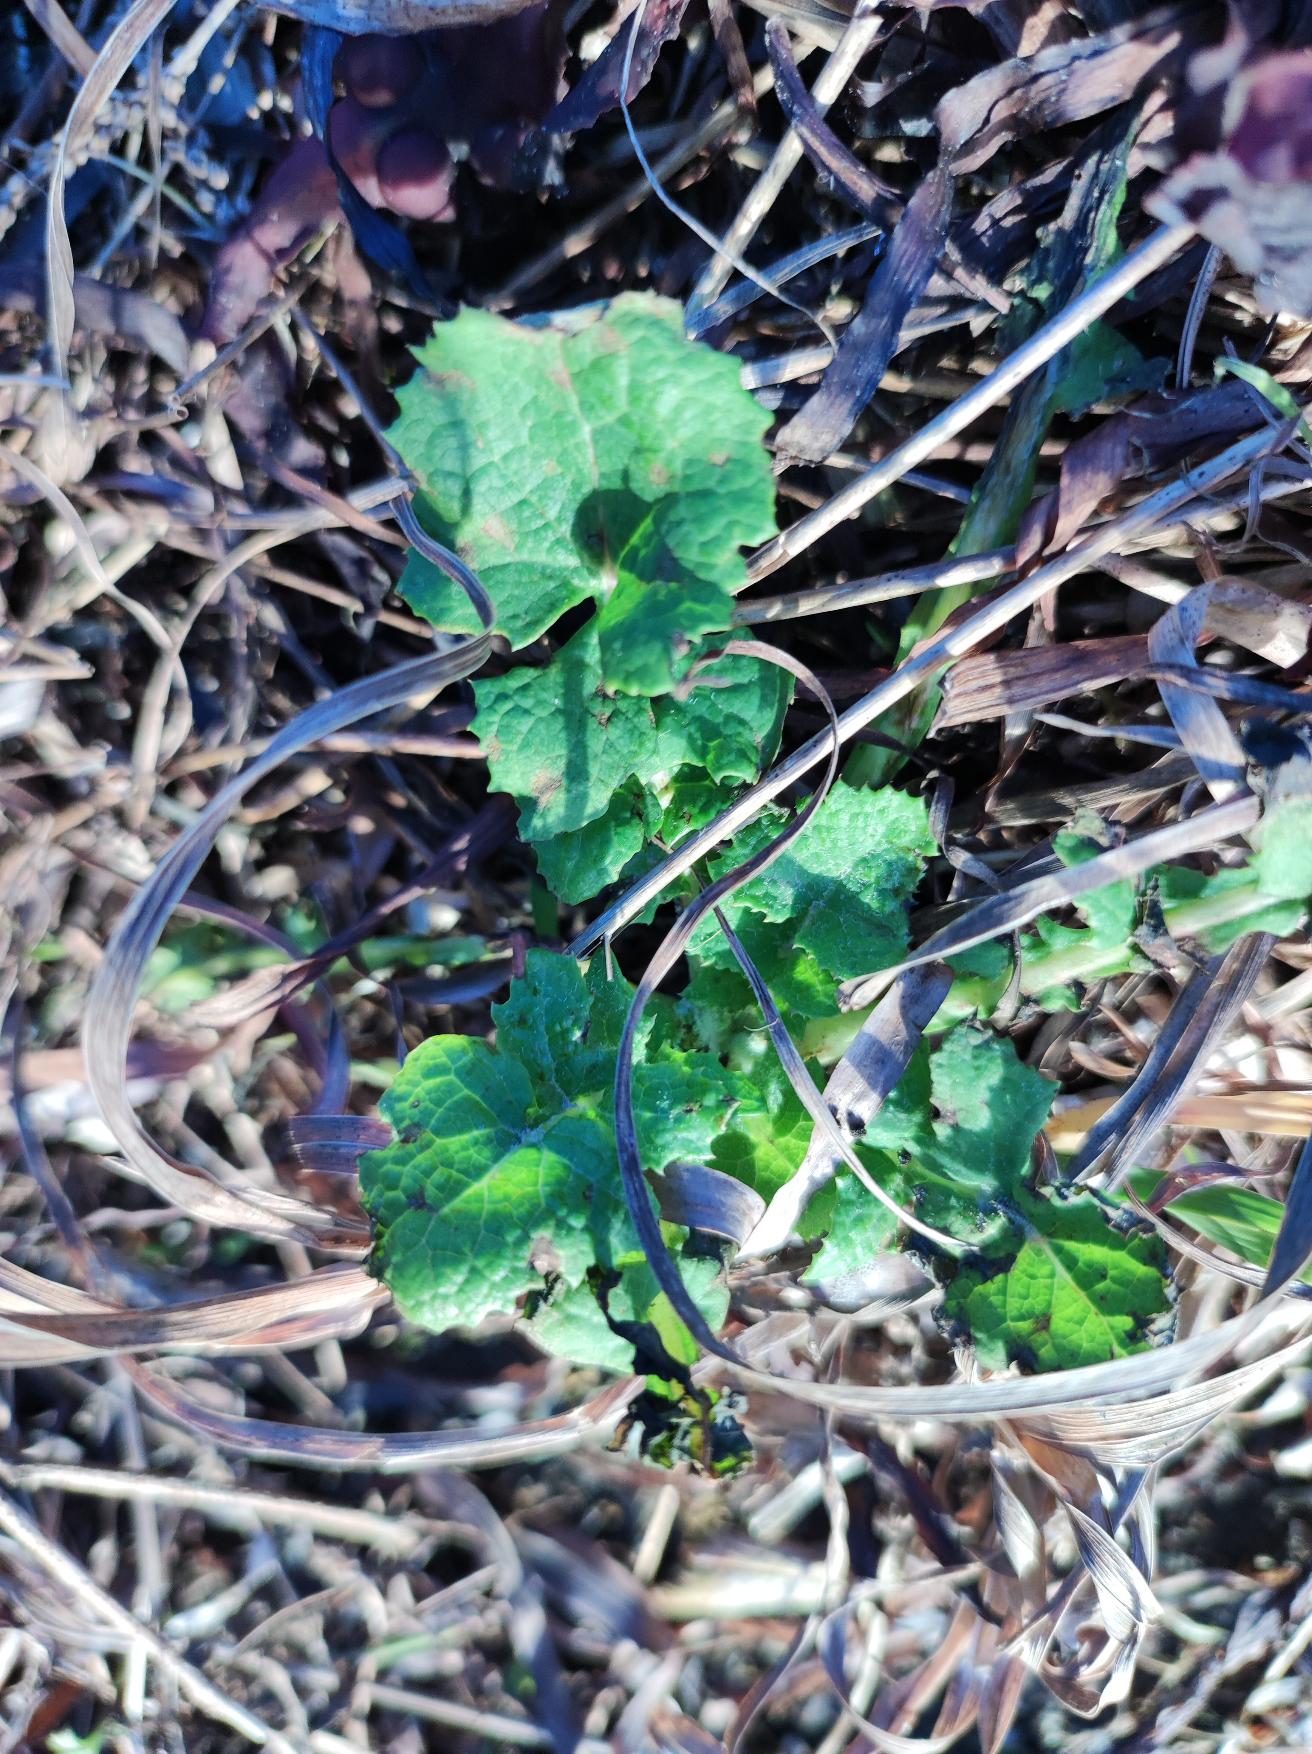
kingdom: Plantae
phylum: Tracheophyta
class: Magnoliopsida
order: Asterales
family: Asteraceae
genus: Sonchus
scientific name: Sonchus oleraceus
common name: Almindelig svinemælk
